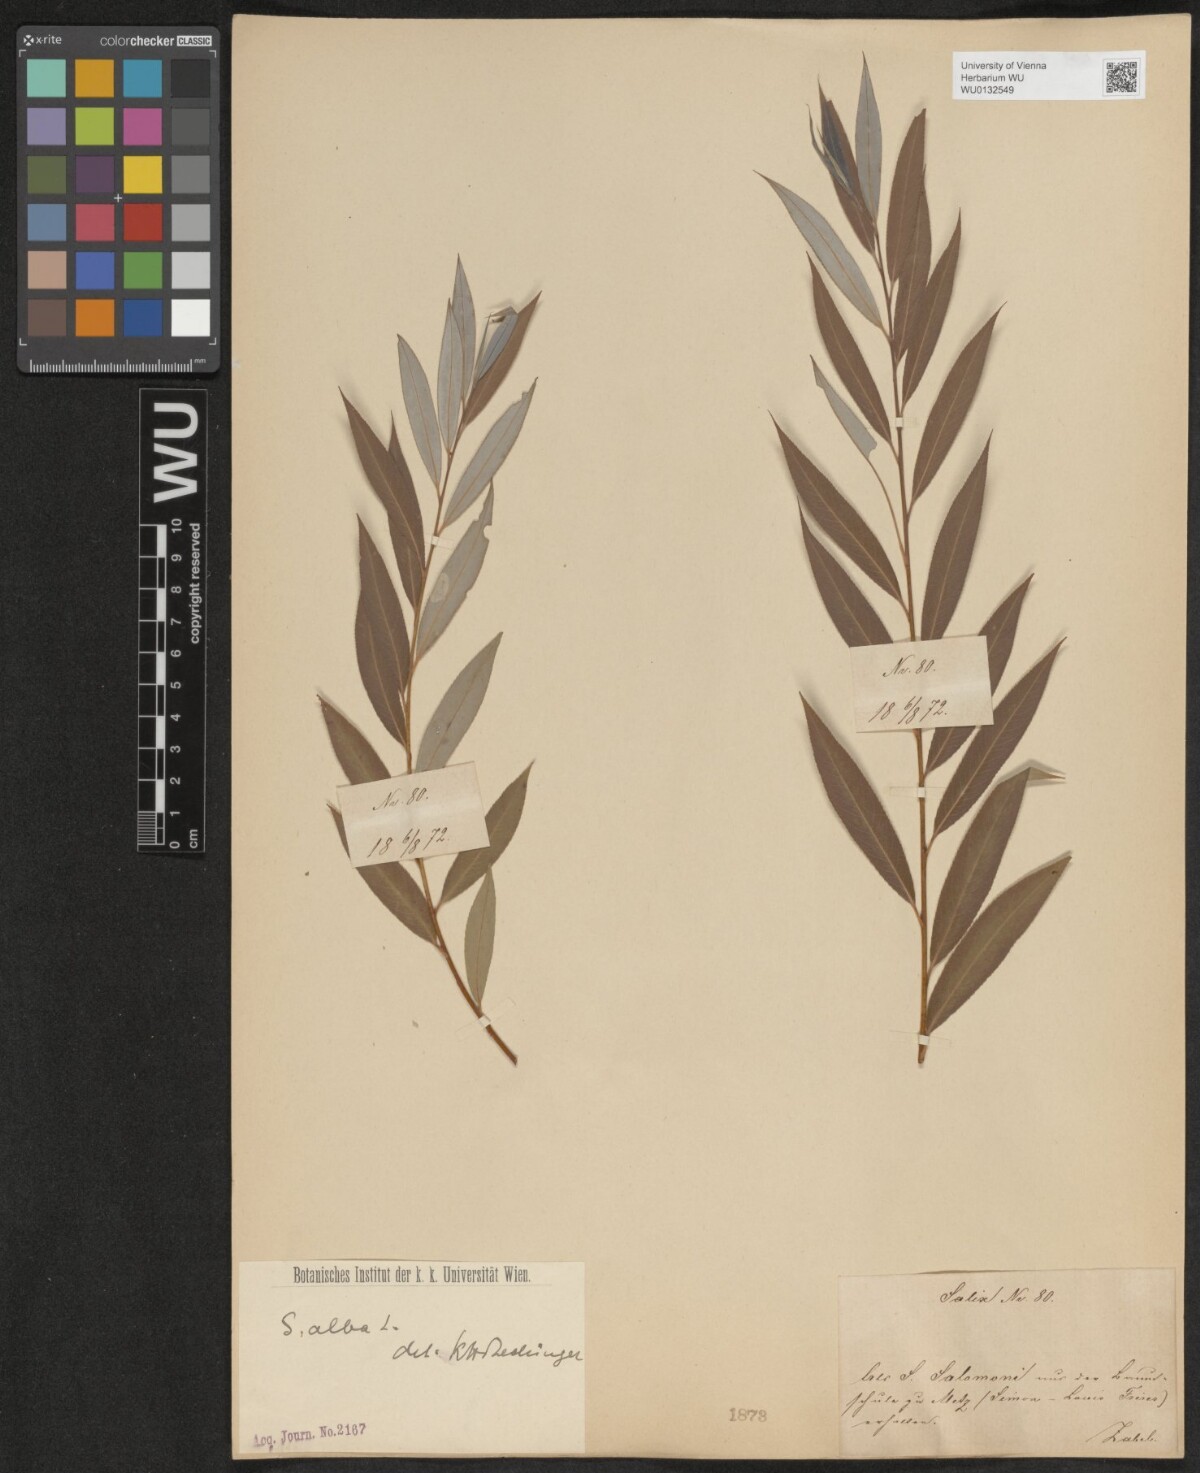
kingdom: Plantae
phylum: Tracheophyta
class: Magnoliopsida
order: Malpighiales
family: Salicaceae
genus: Salix
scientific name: Salix alba
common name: White willow
